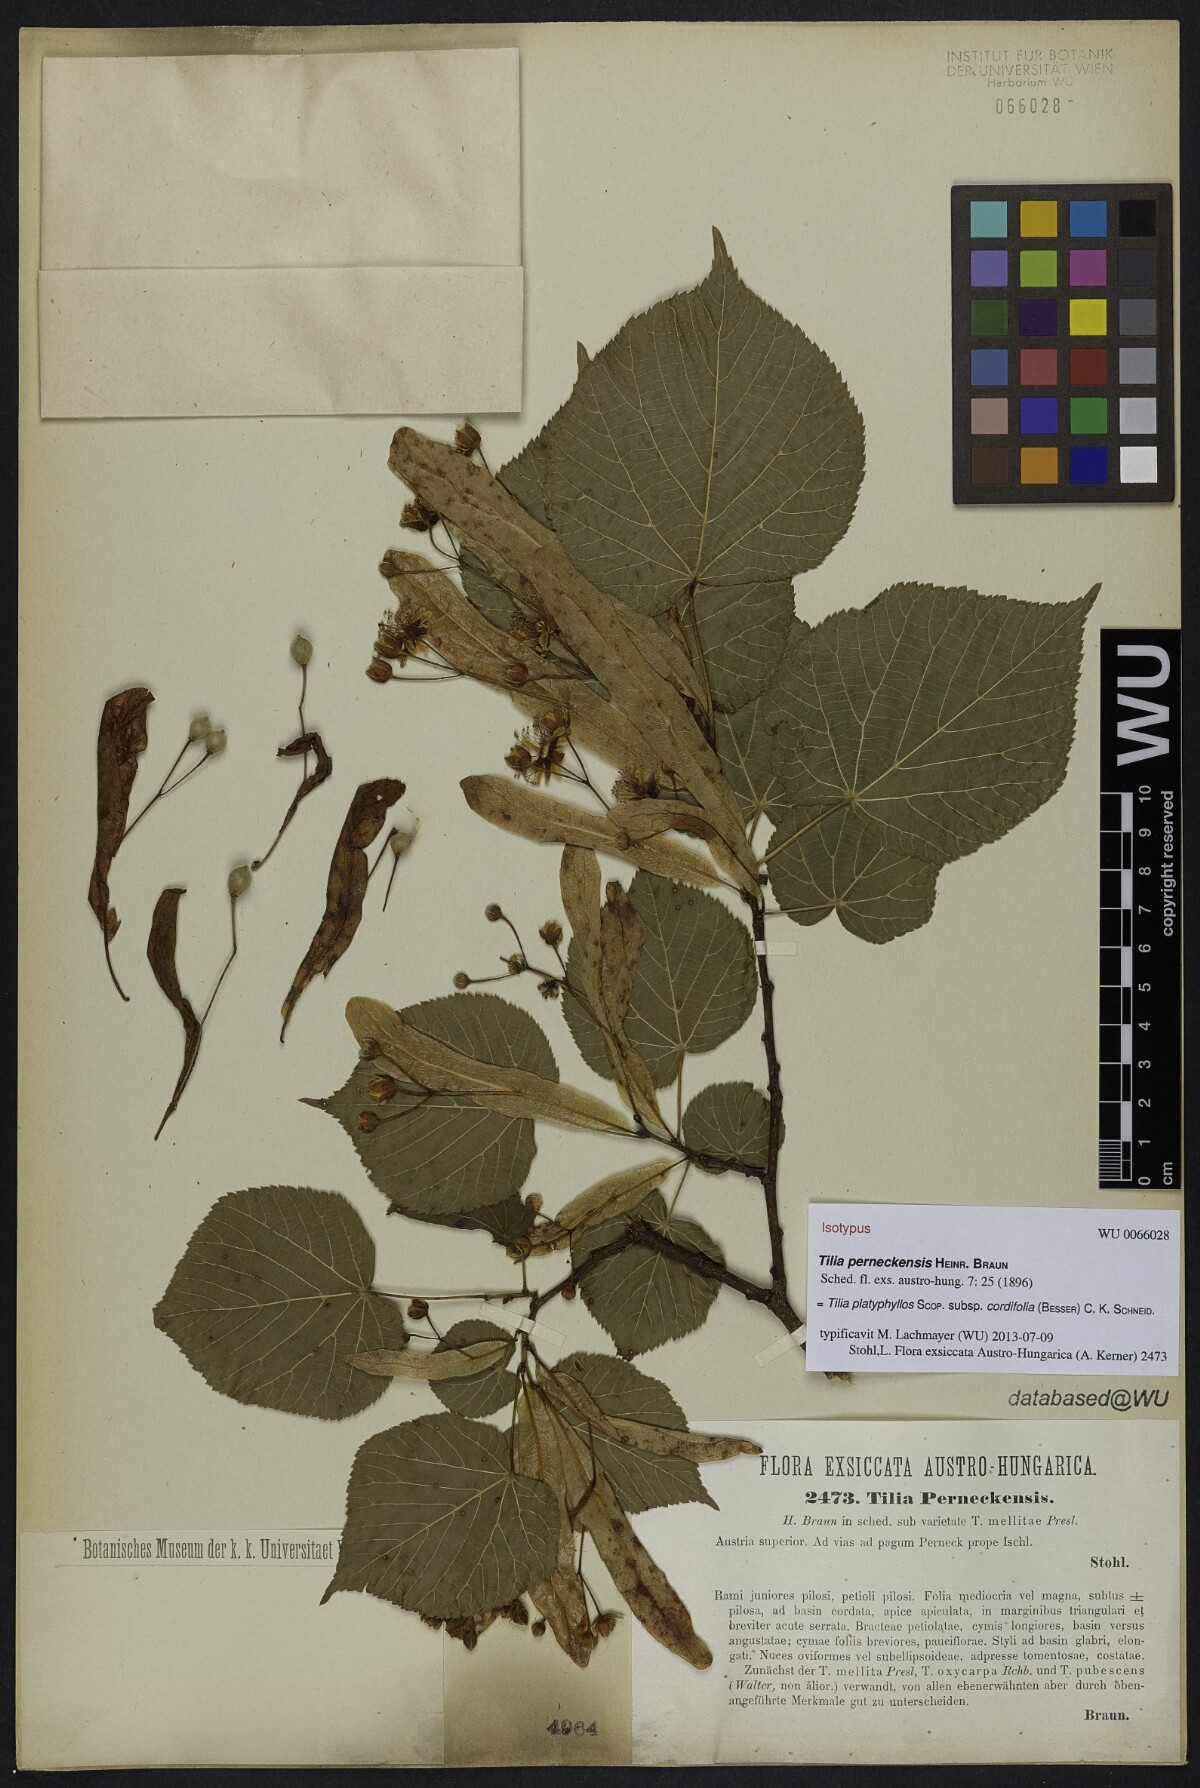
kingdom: Plantae
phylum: Tracheophyta
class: Magnoliopsida
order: Malvales
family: Malvaceae
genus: Tilia
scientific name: Tilia perneckensis
